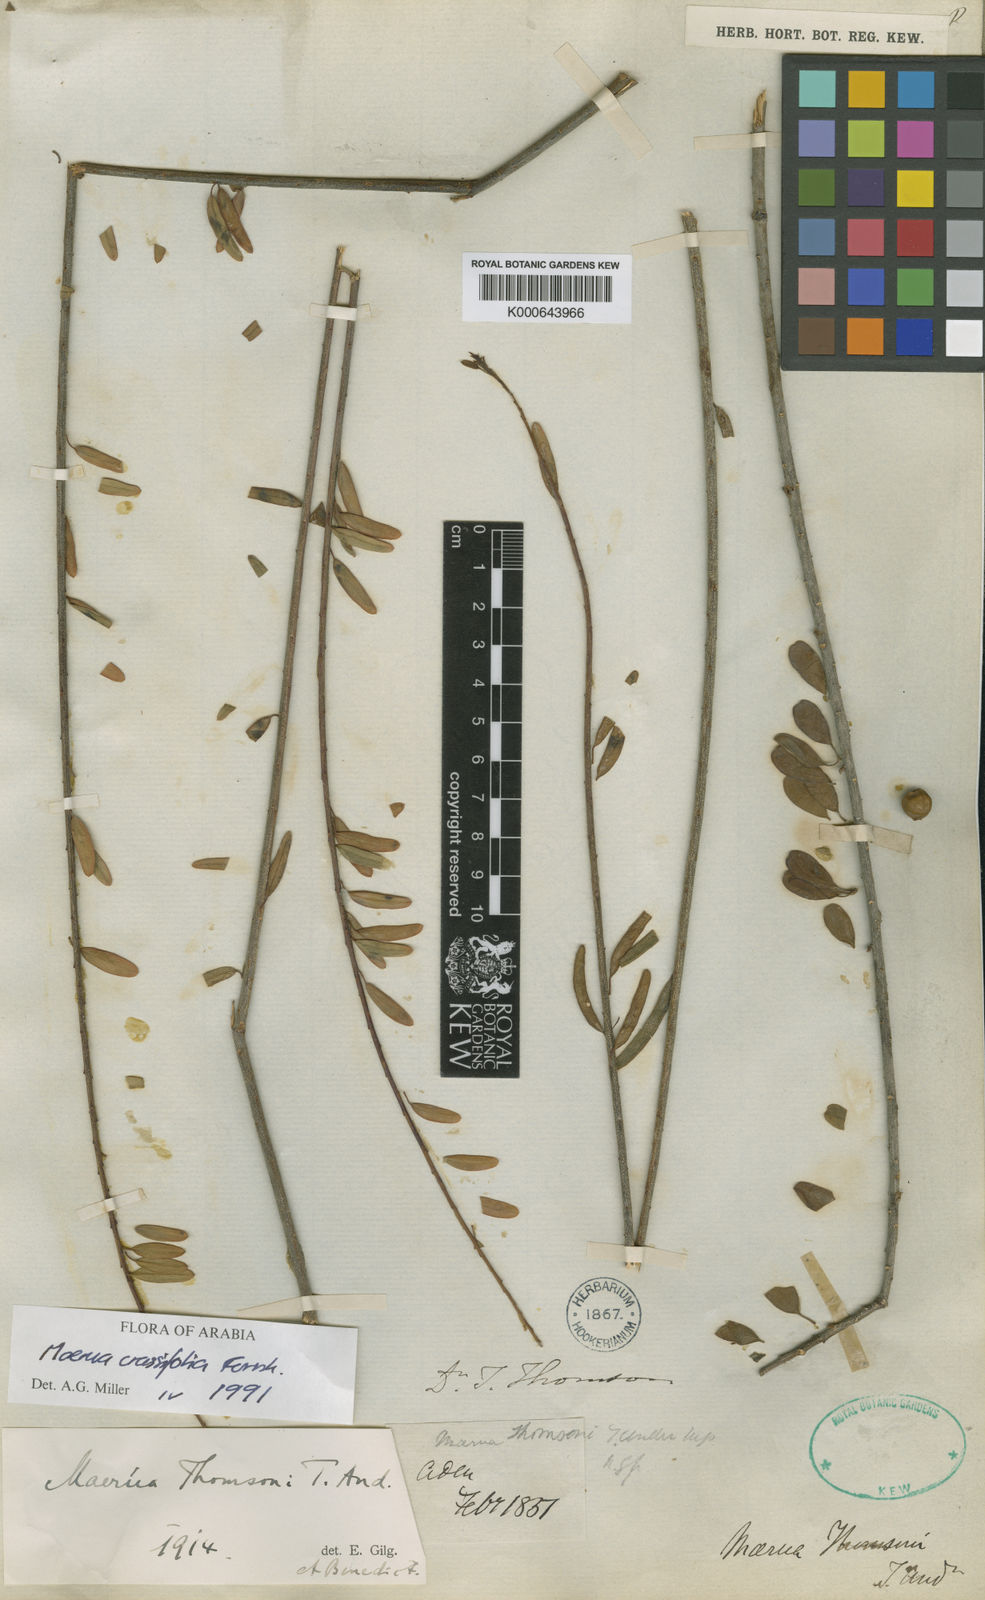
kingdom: Plantae
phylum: Tracheophyta
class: Magnoliopsida
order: Brassicales
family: Capparaceae
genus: Maerua
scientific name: Maerua thomsonii
